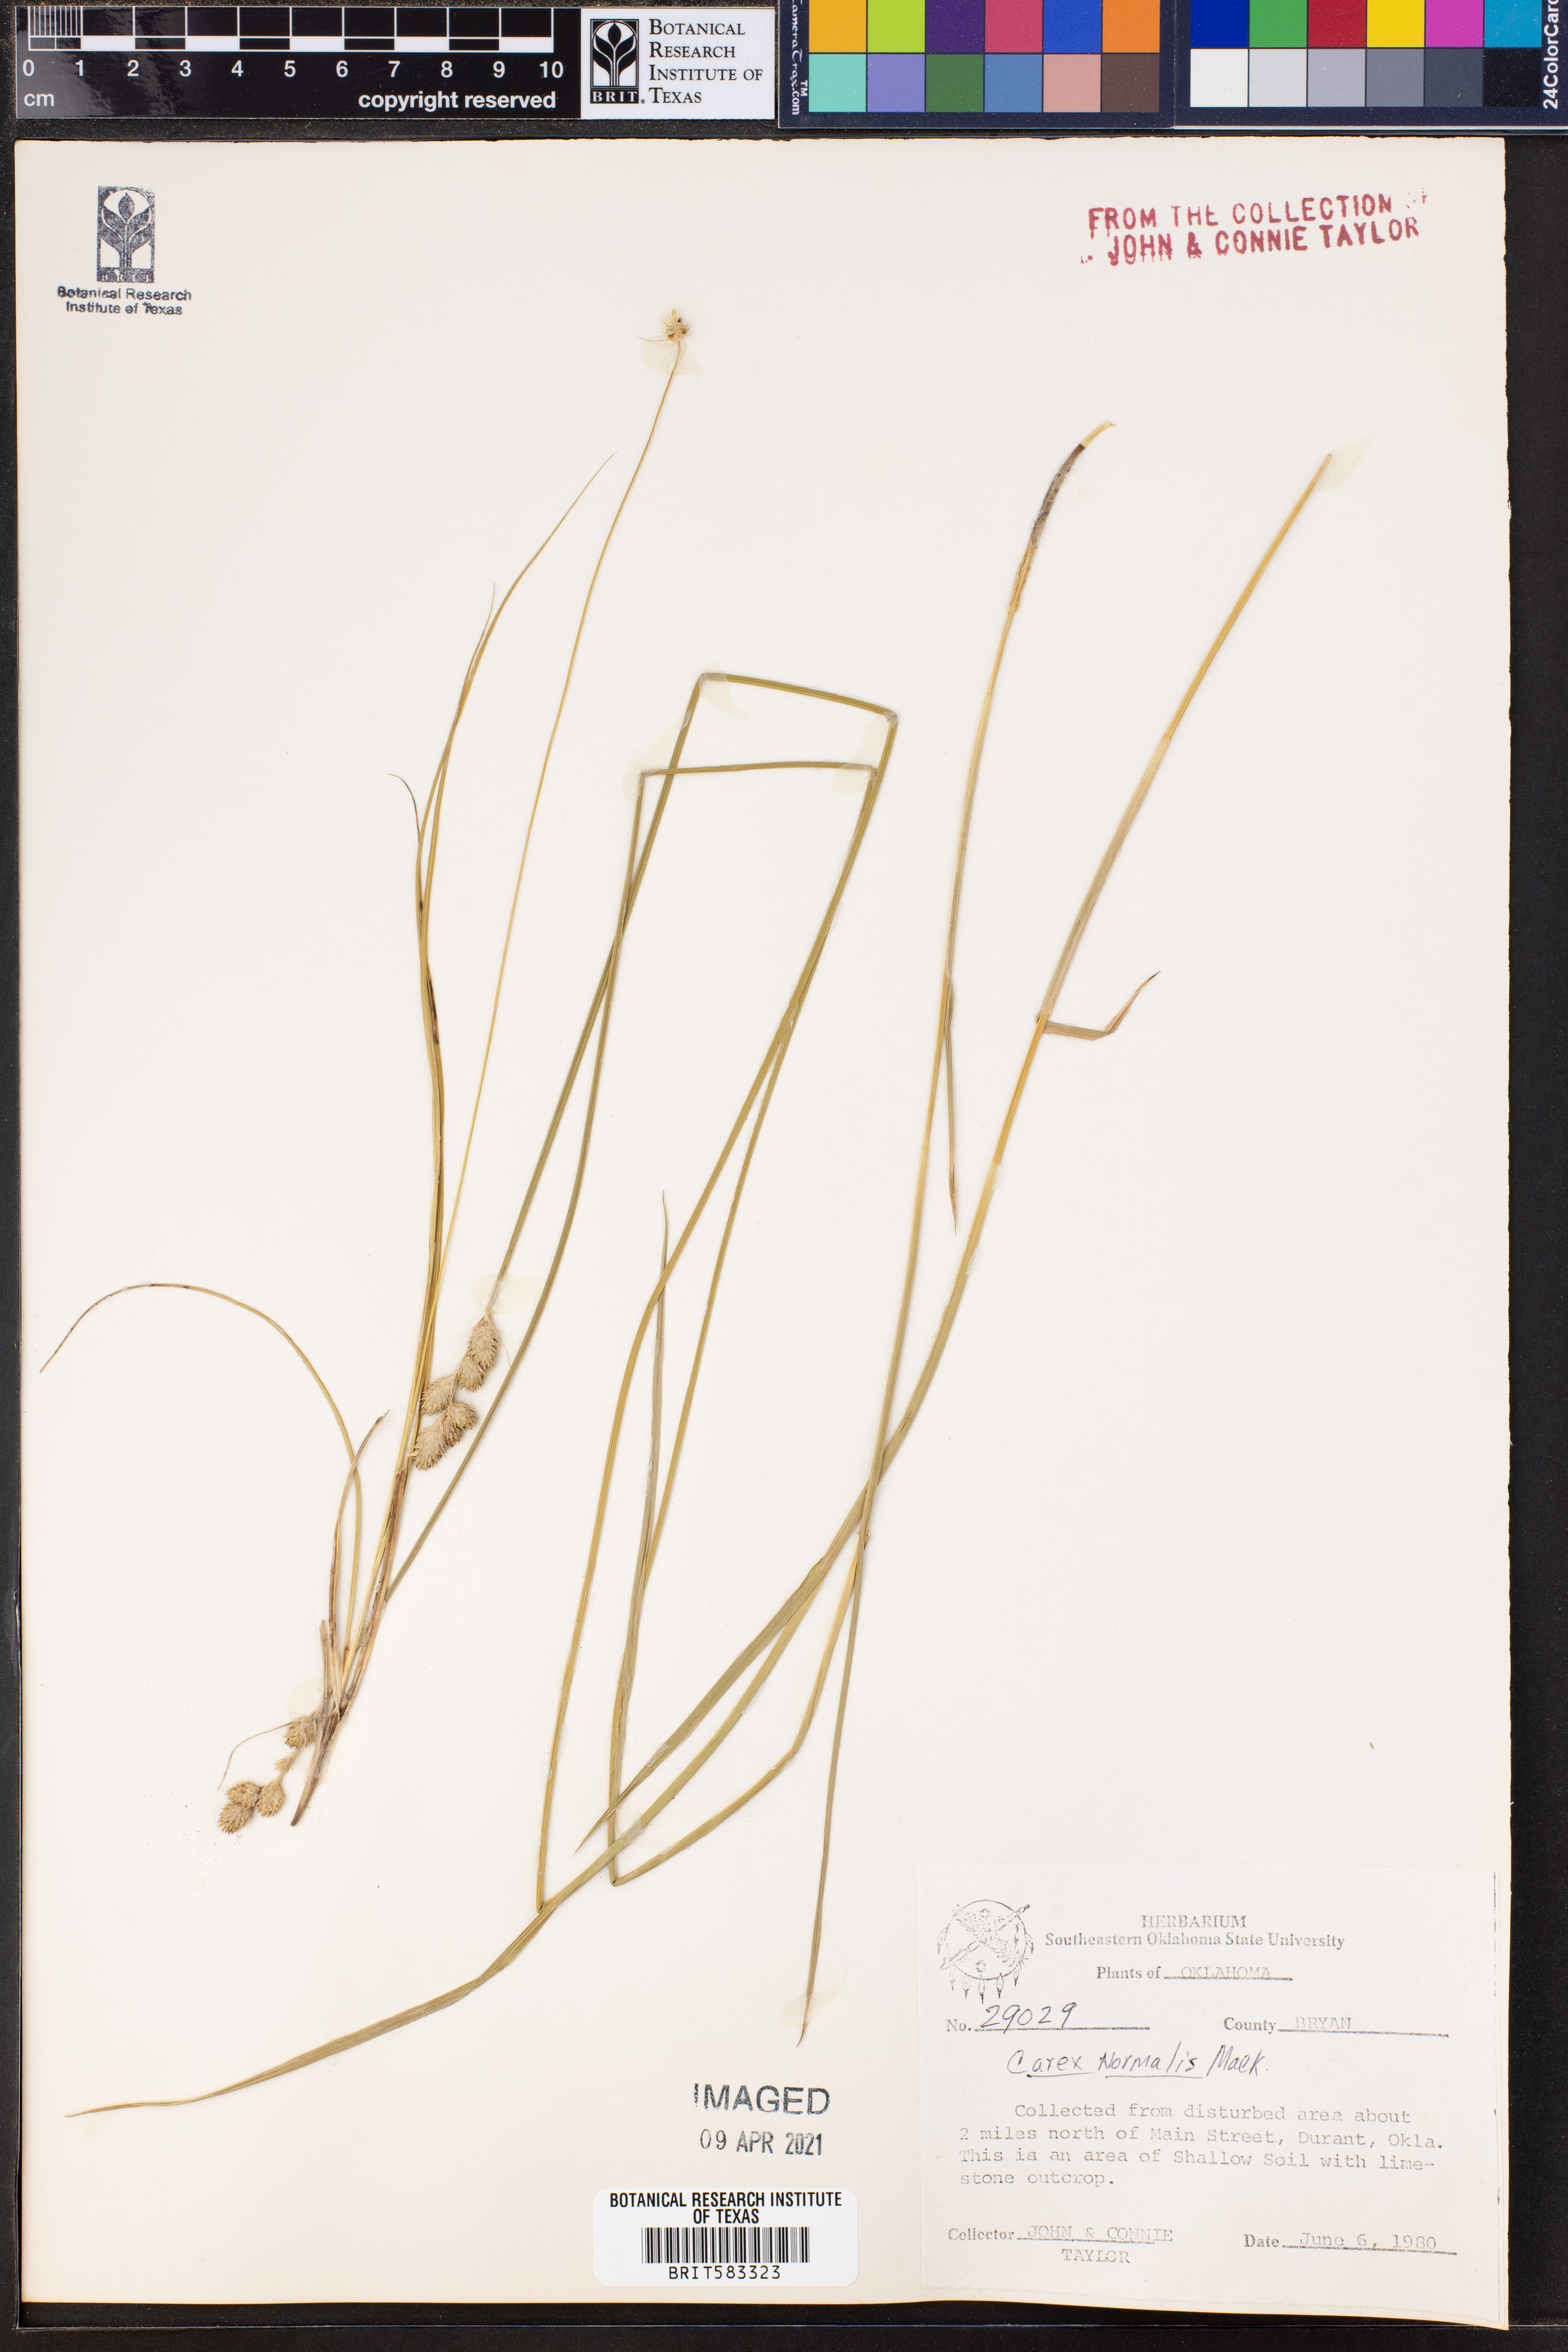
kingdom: Plantae
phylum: Tracheophyta
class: Liliopsida
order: Poales
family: Cyperaceae
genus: Carex
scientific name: Carex normalis
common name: Greater straw sedge
